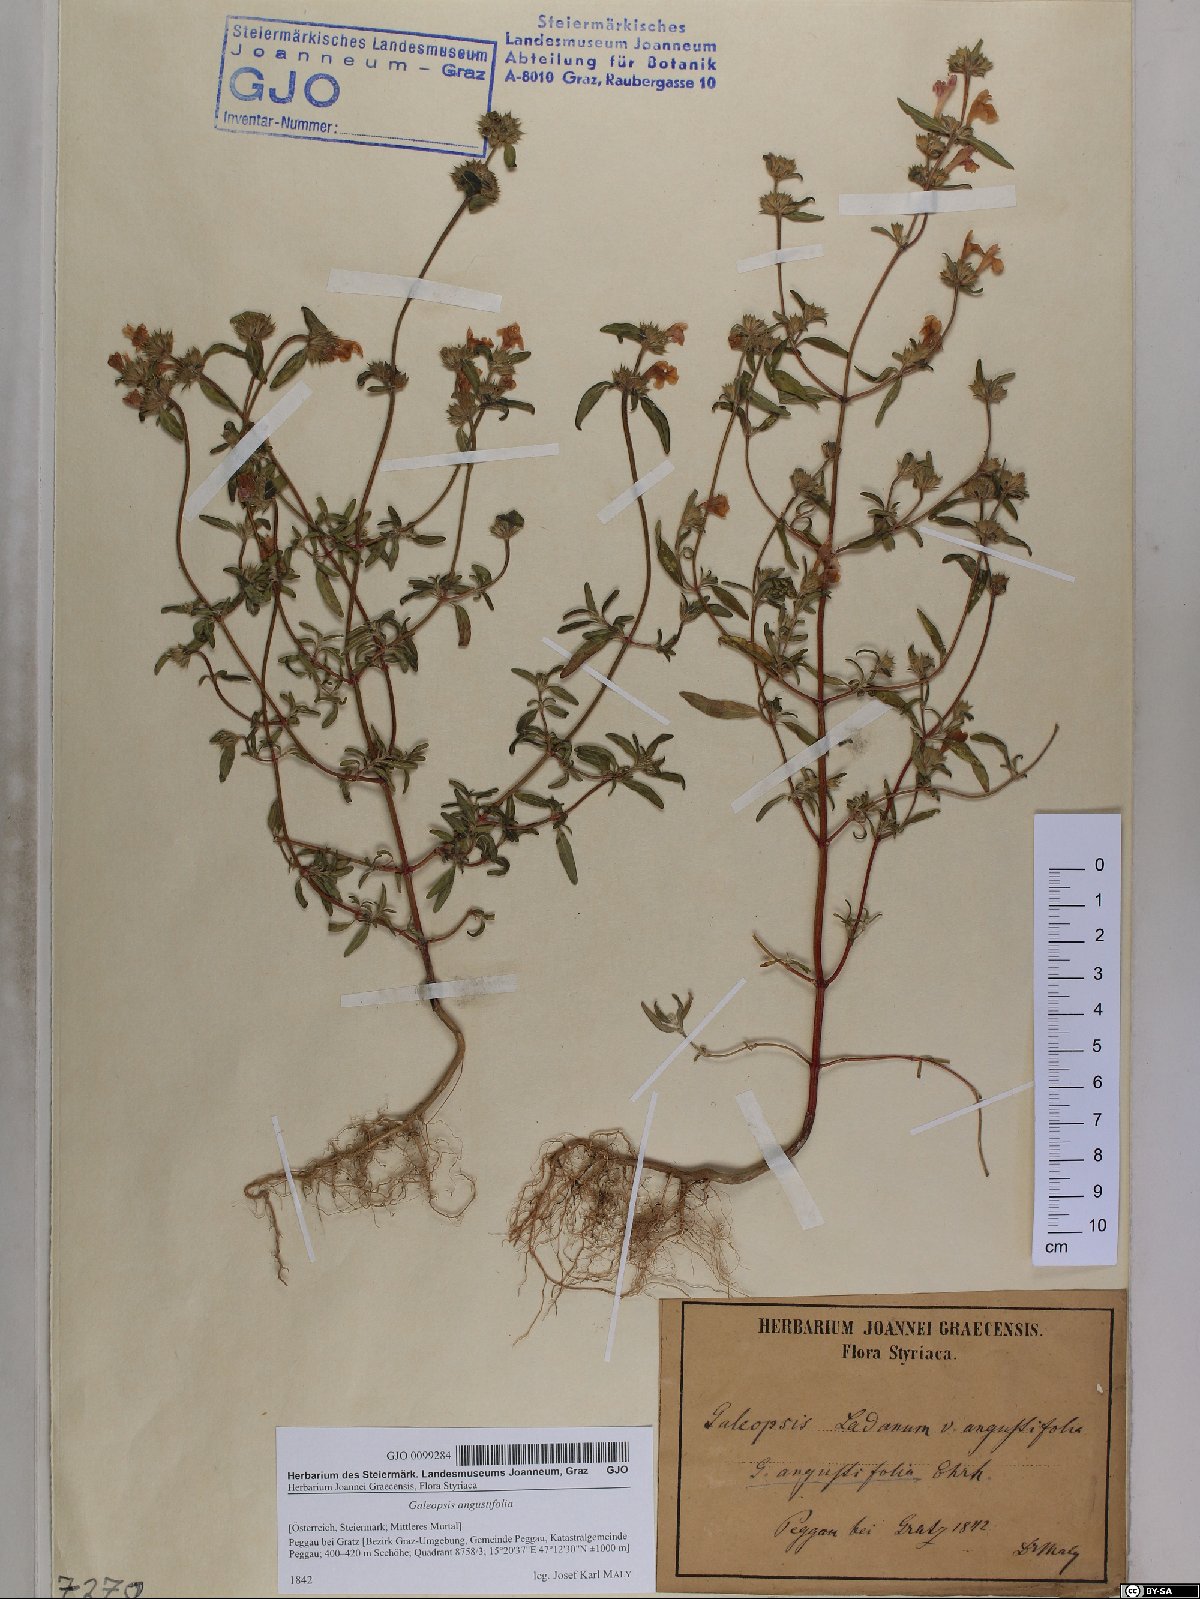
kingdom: Plantae
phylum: Tracheophyta
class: Magnoliopsida
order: Lamiales
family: Lamiaceae
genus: Galeopsis
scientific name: Galeopsis angustifolia
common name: Red hemp-nettle
